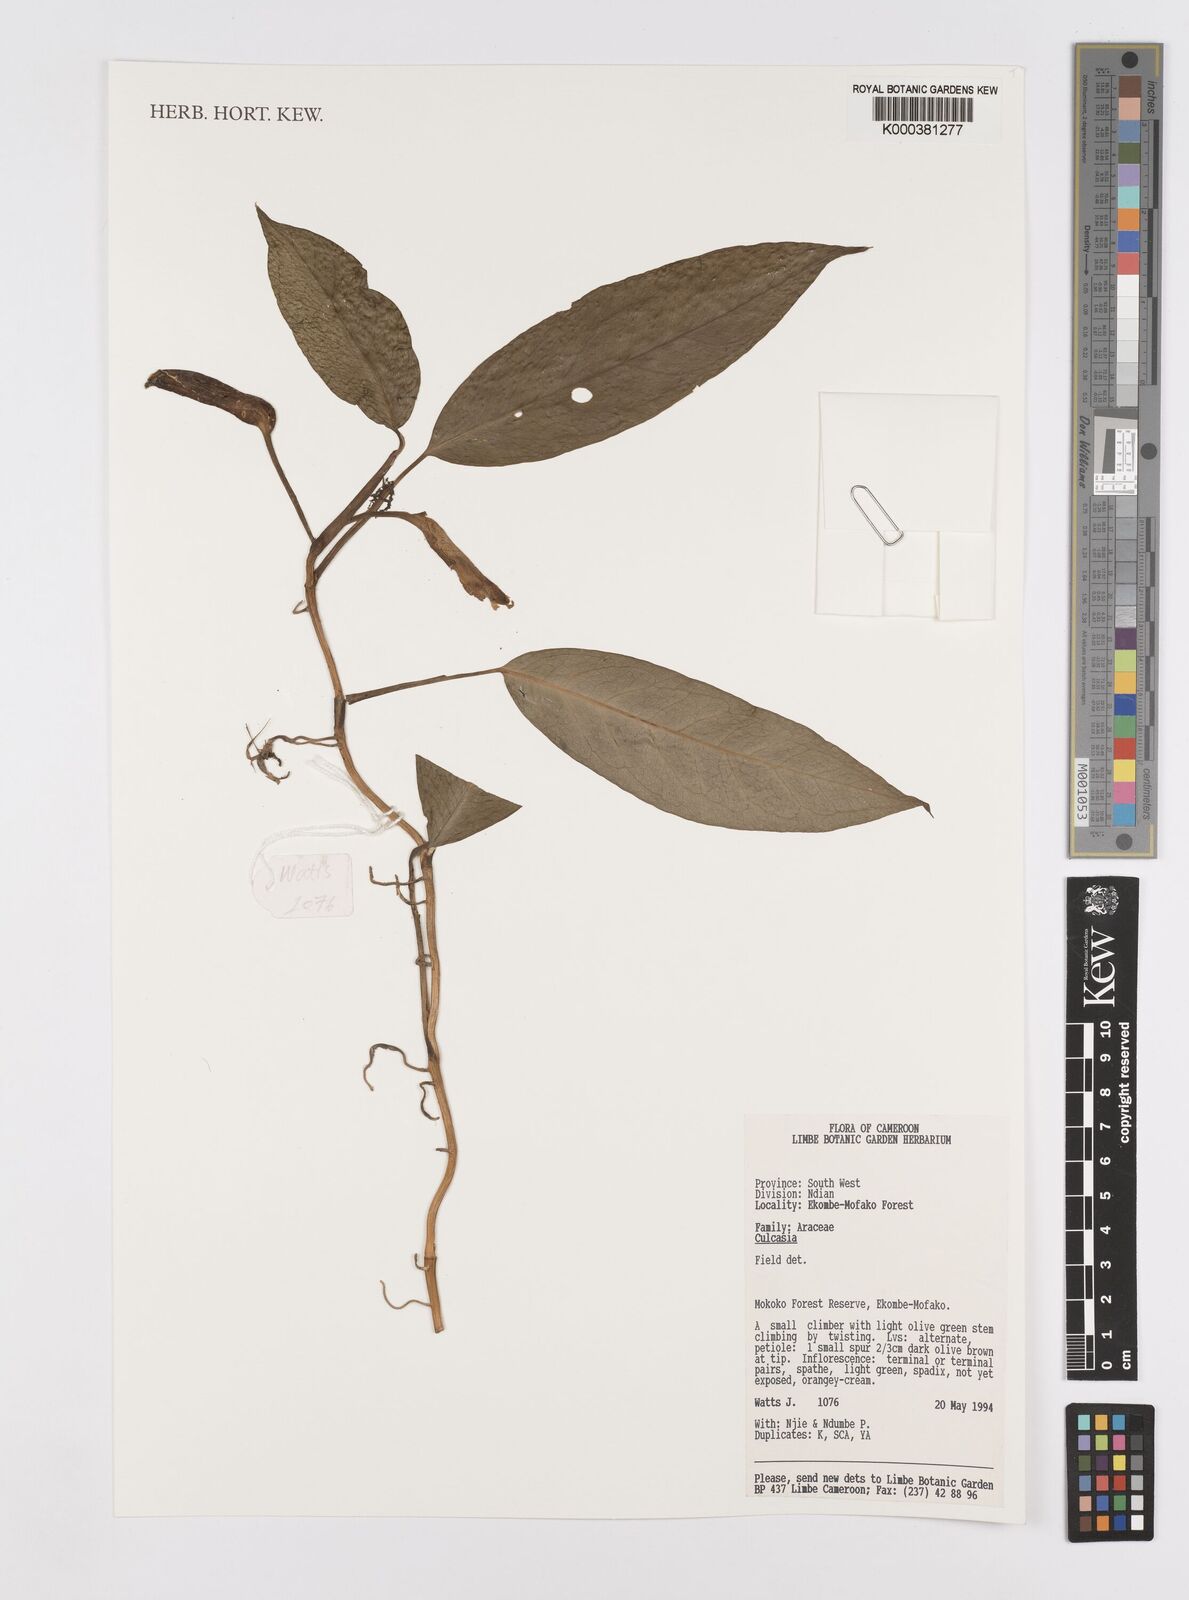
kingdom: Plantae
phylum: Tracheophyta
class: Liliopsida
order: Alismatales
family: Araceae
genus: Culcasia
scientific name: Culcasia
